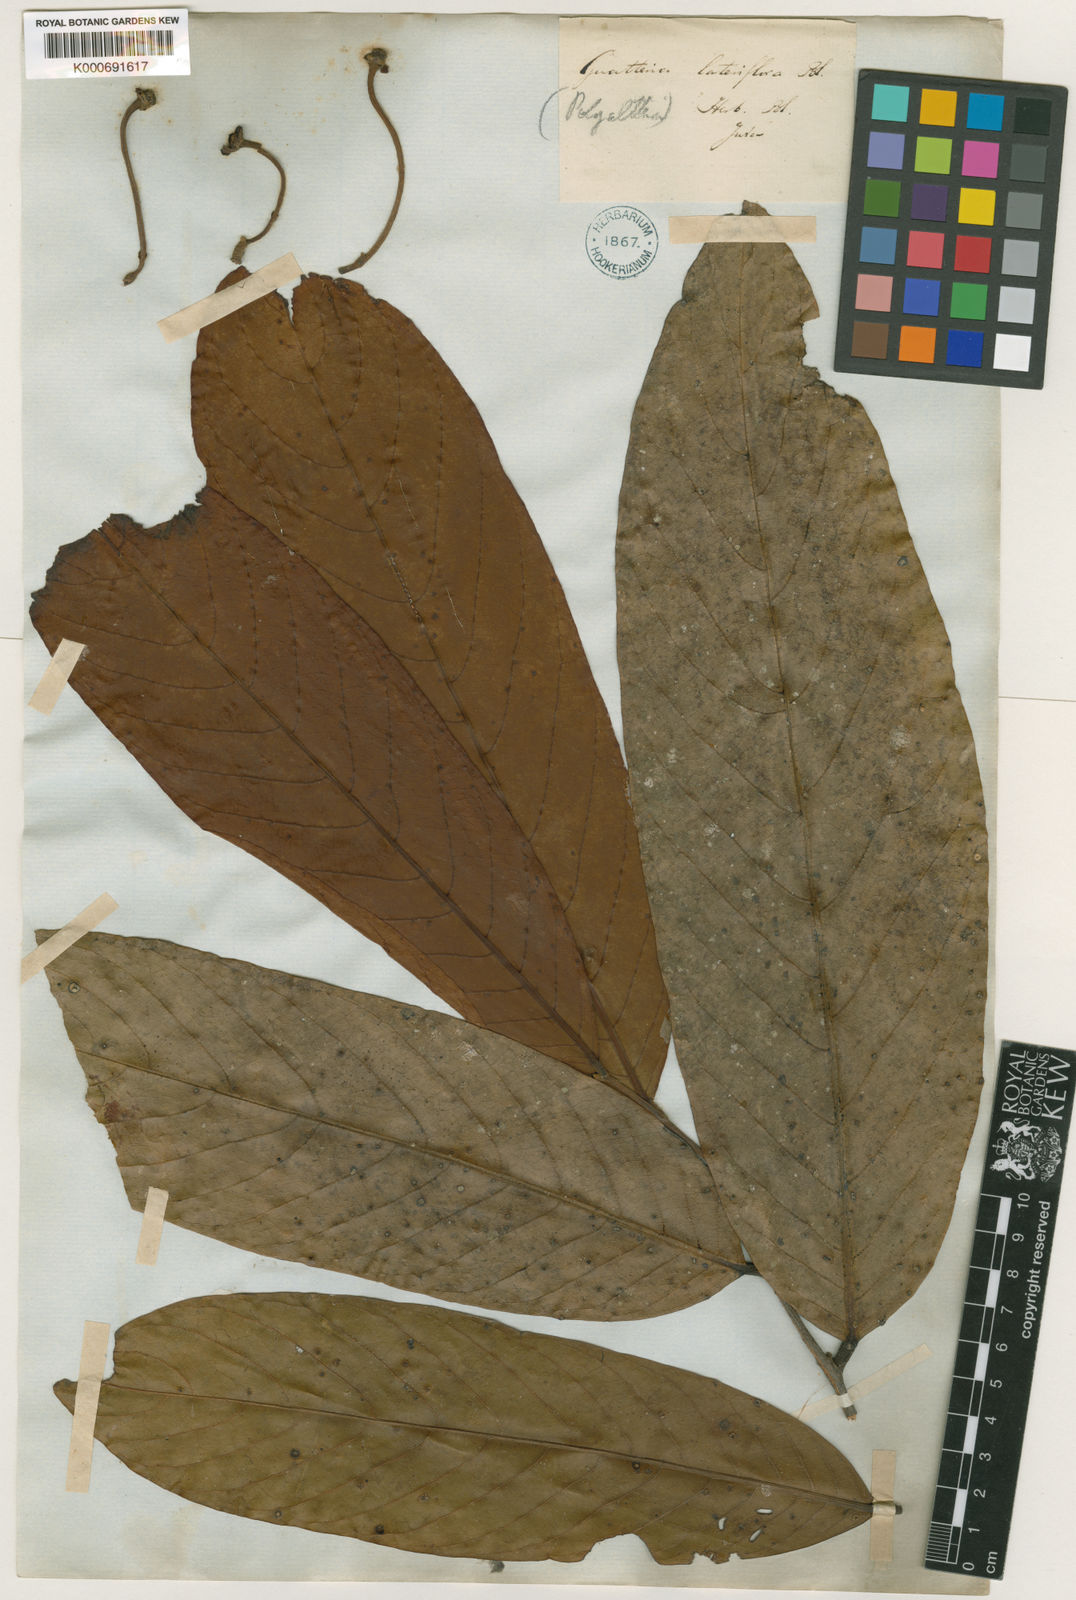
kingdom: Plantae
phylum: Tracheophyta
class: Magnoliopsida
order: Magnoliales
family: Annonaceae
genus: Polyalthia
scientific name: Polyalthia
